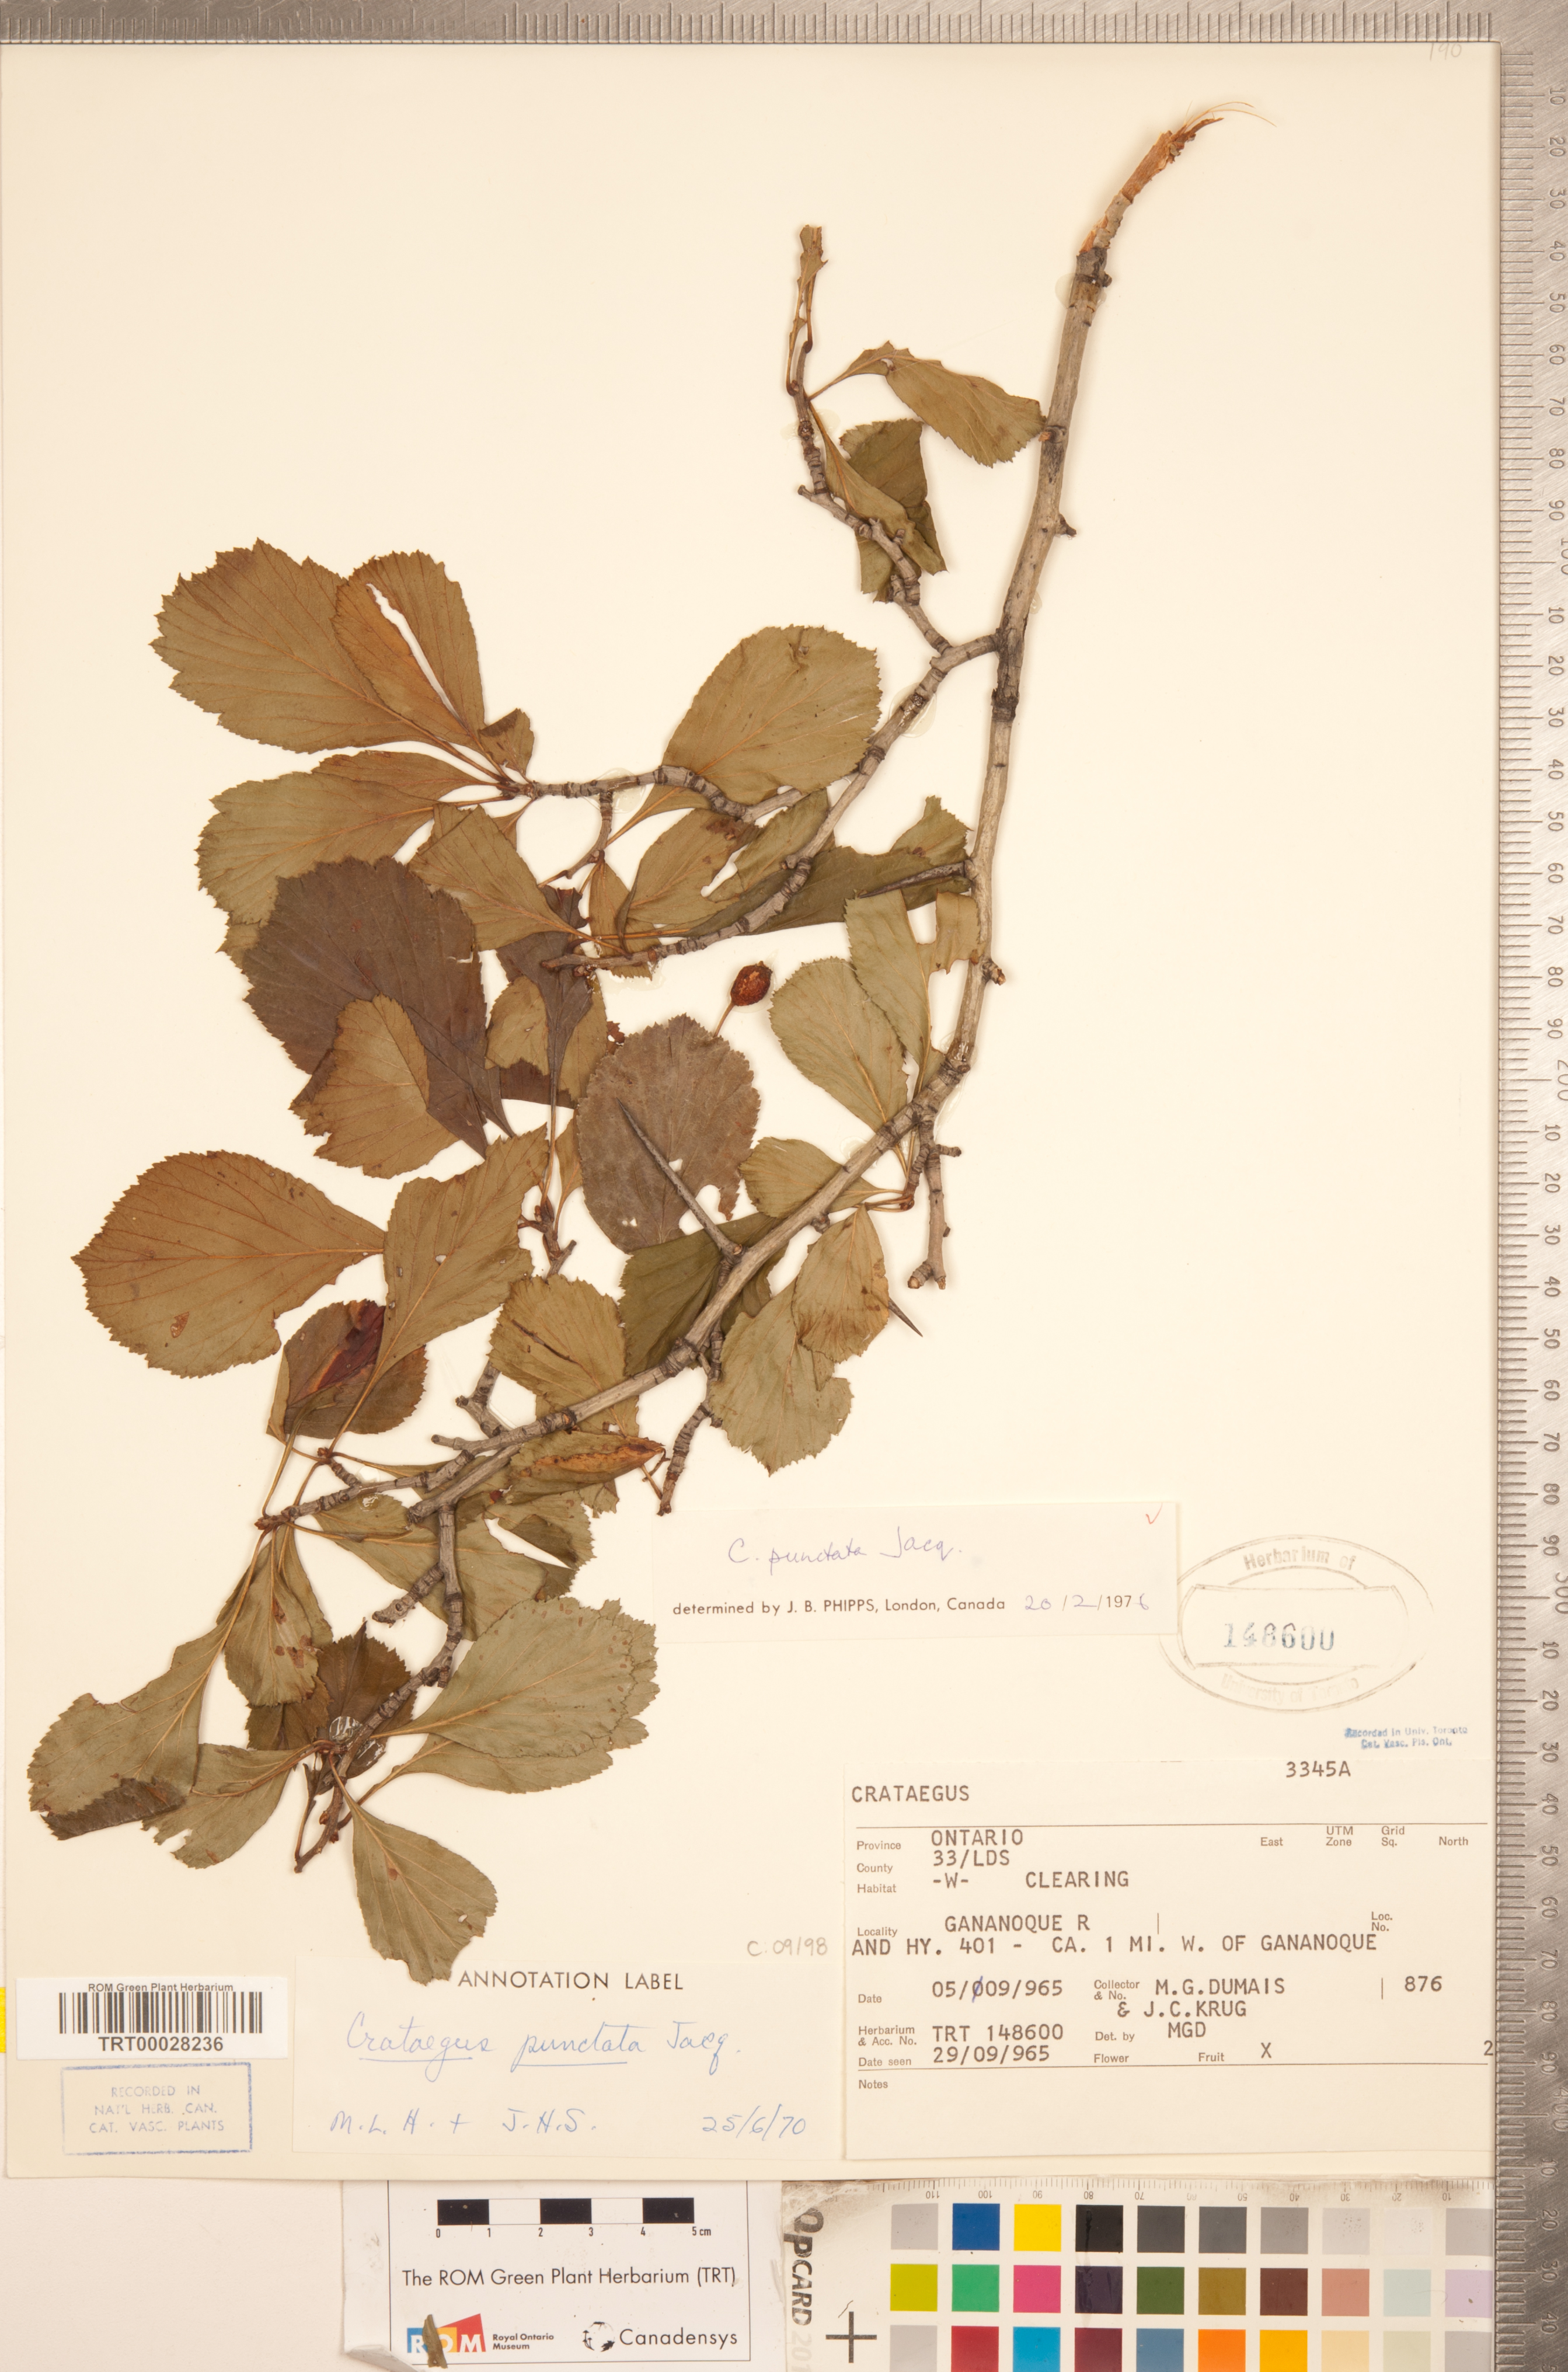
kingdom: Plantae
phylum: Tracheophyta
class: Magnoliopsida
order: Rosales
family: Rosaceae
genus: Crataegus
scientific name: Crataegus punctata
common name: Dotted hawthorn
